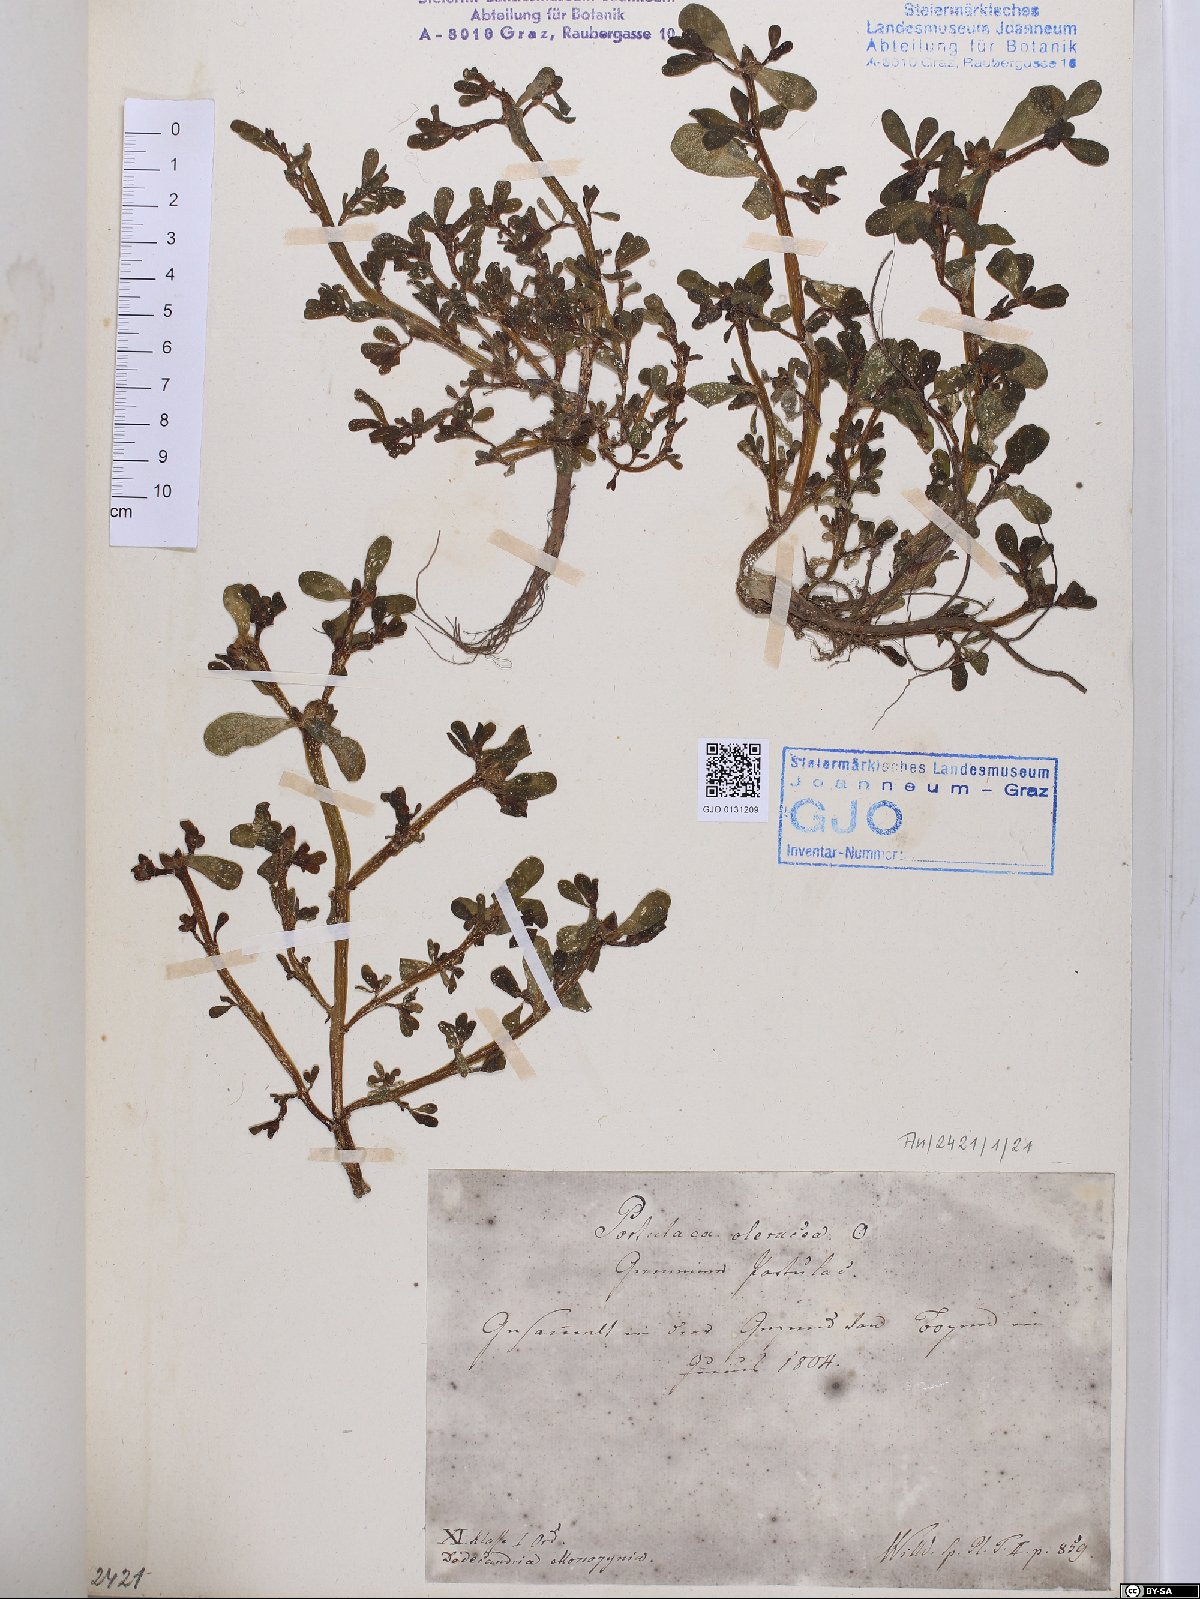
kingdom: Plantae
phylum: Tracheophyta
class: Magnoliopsida
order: Caryophyllales
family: Portulacaceae
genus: Portulaca
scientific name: Portulaca oleracea
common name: Common purslane
